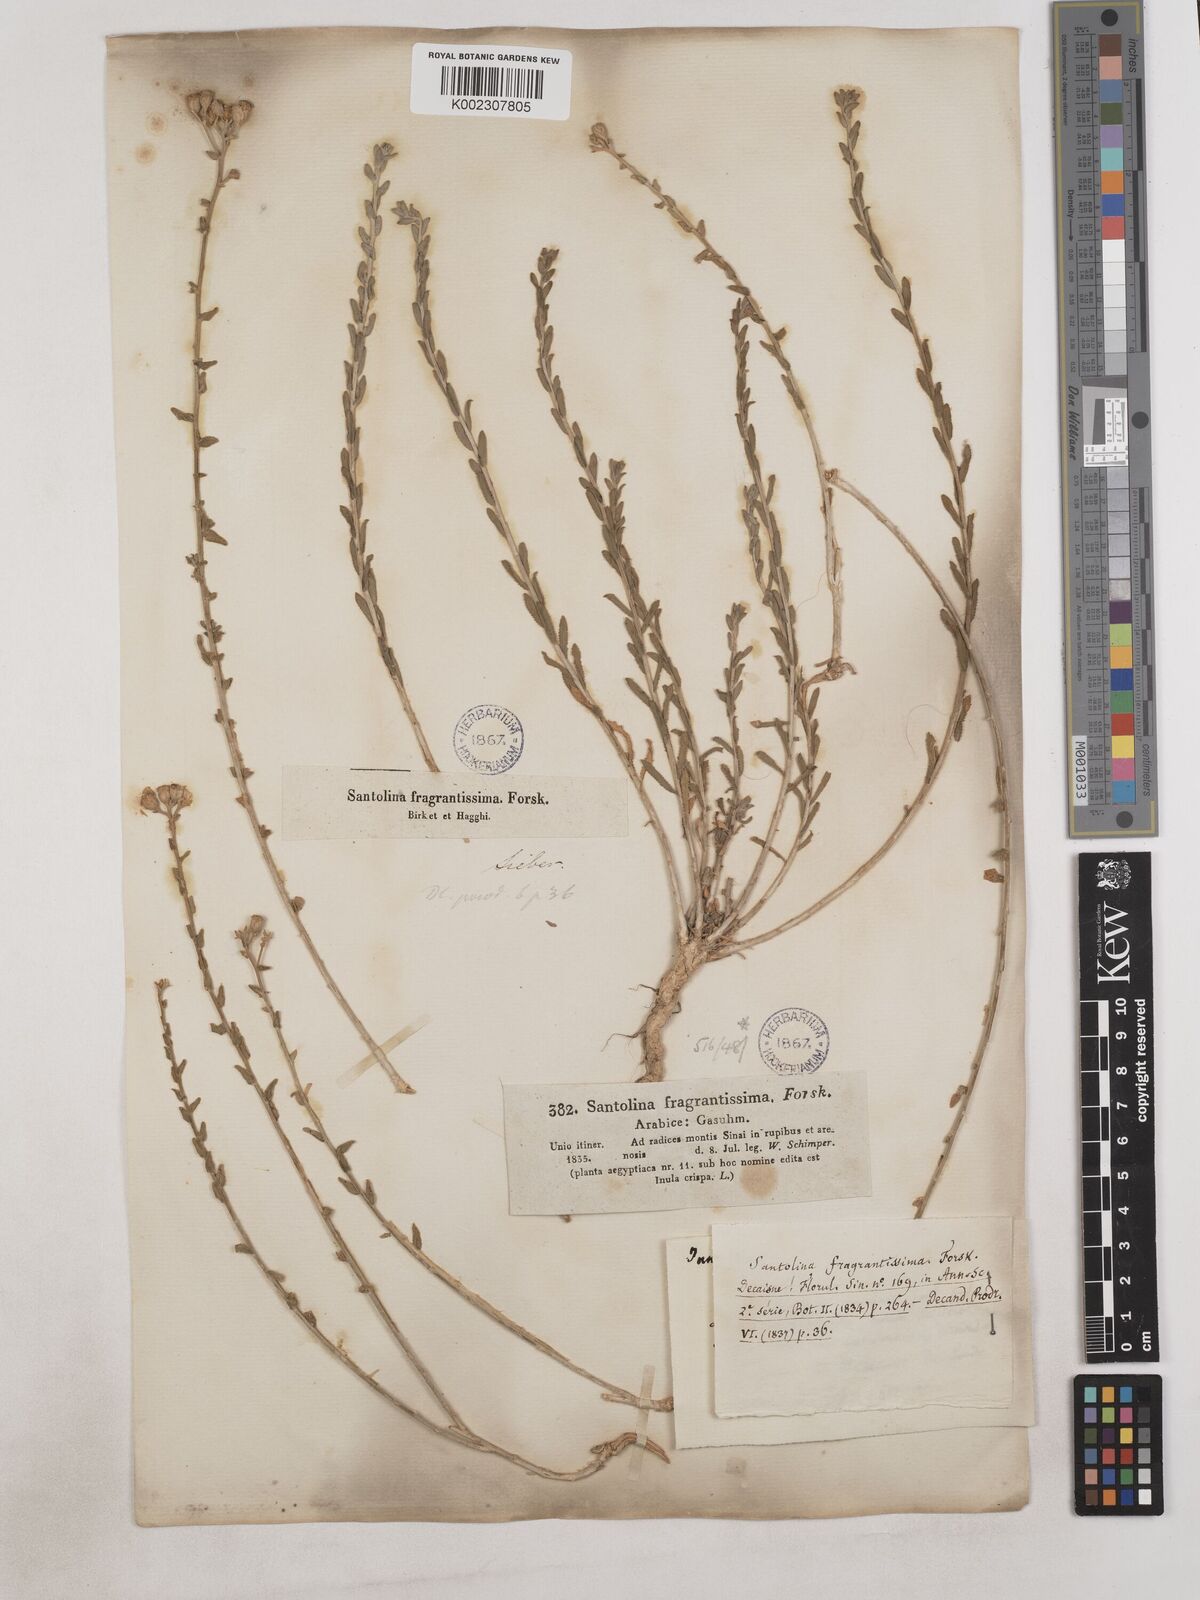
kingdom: Plantae
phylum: Tracheophyta
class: Magnoliopsida
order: Asterales
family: Asteraceae
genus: Achillea
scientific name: Achillea fragrantissima
